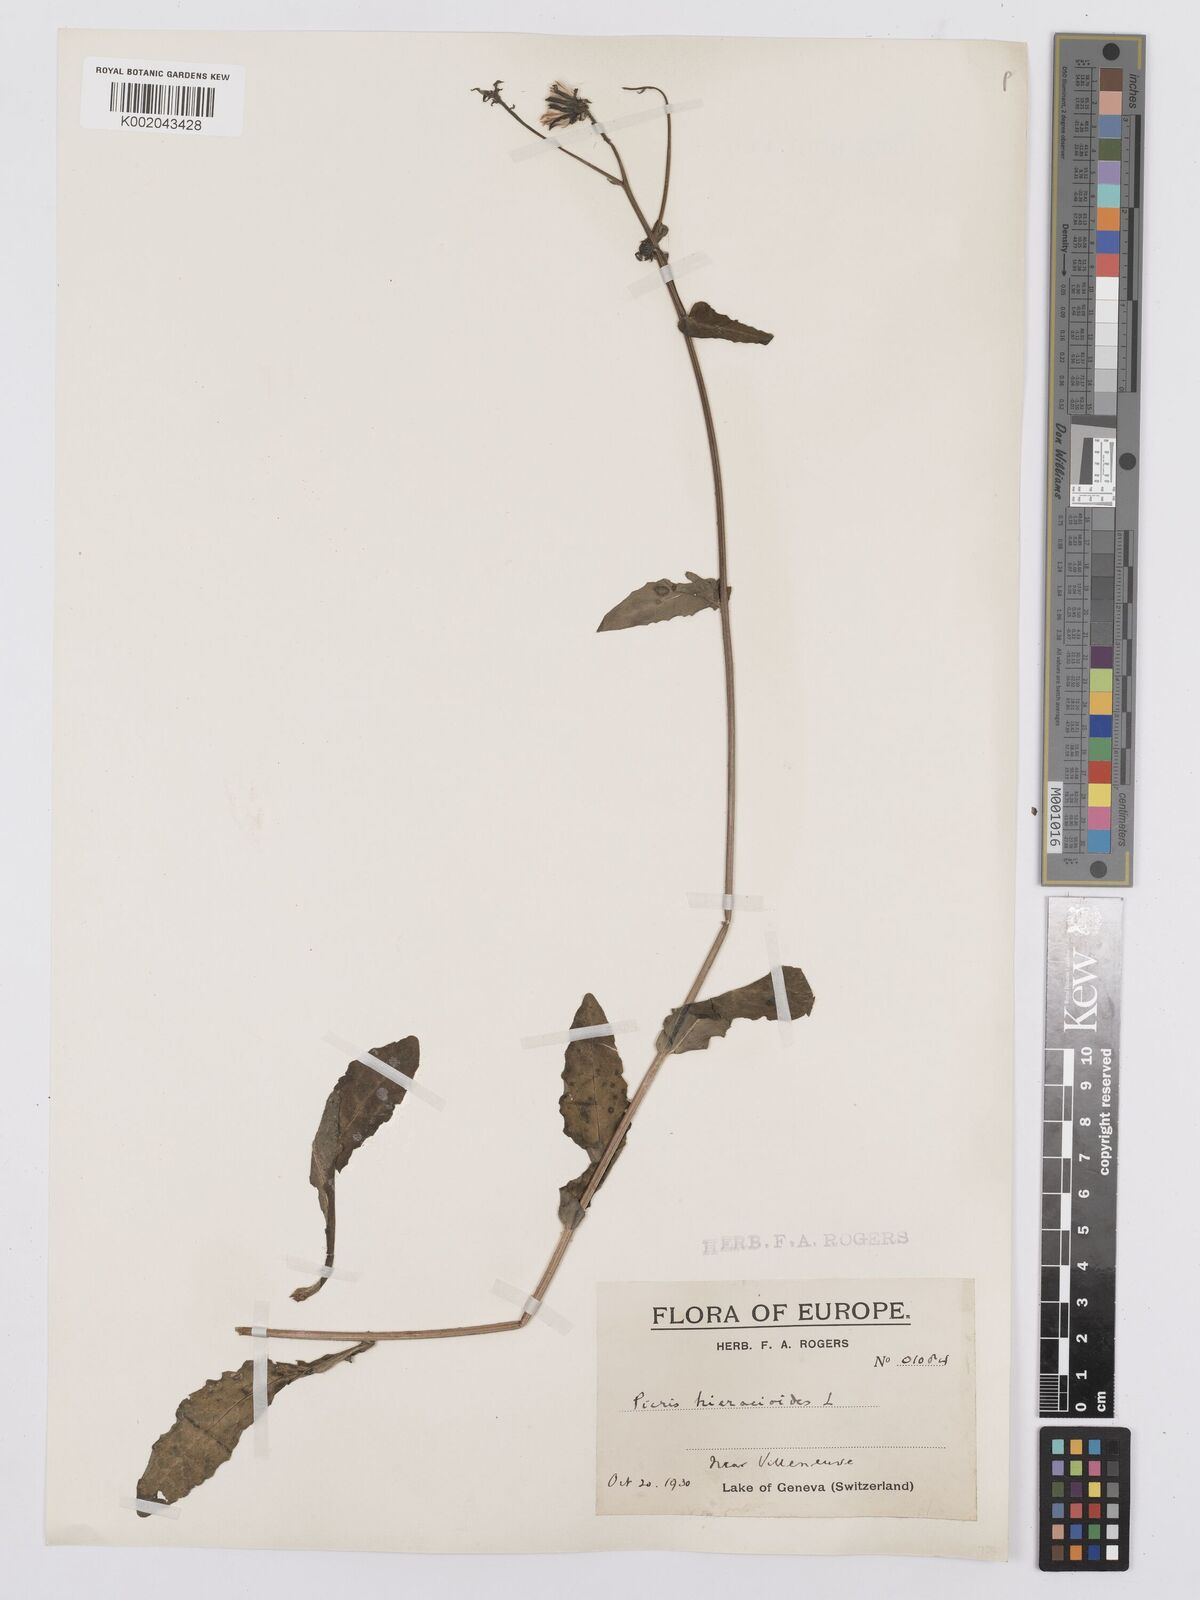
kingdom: Plantae
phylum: Tracheophyta
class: Magnoliopsida
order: Asterales
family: Asteraceae
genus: Picris
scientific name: Picris hieracioides
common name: Hawkweed oxtongue
